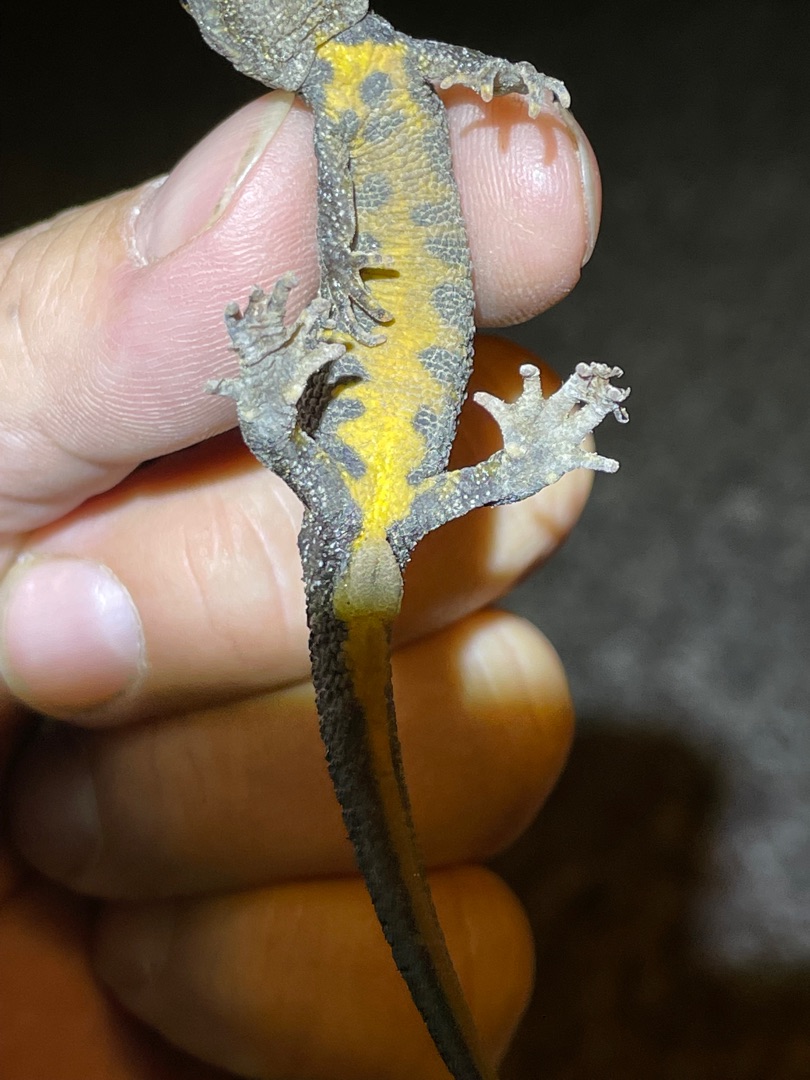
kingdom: Animalia
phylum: Chordata
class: Amphibia
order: Caudata
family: Salamandridae
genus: Triturus
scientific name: Triturus cristatus
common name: Stor vandsalamander
